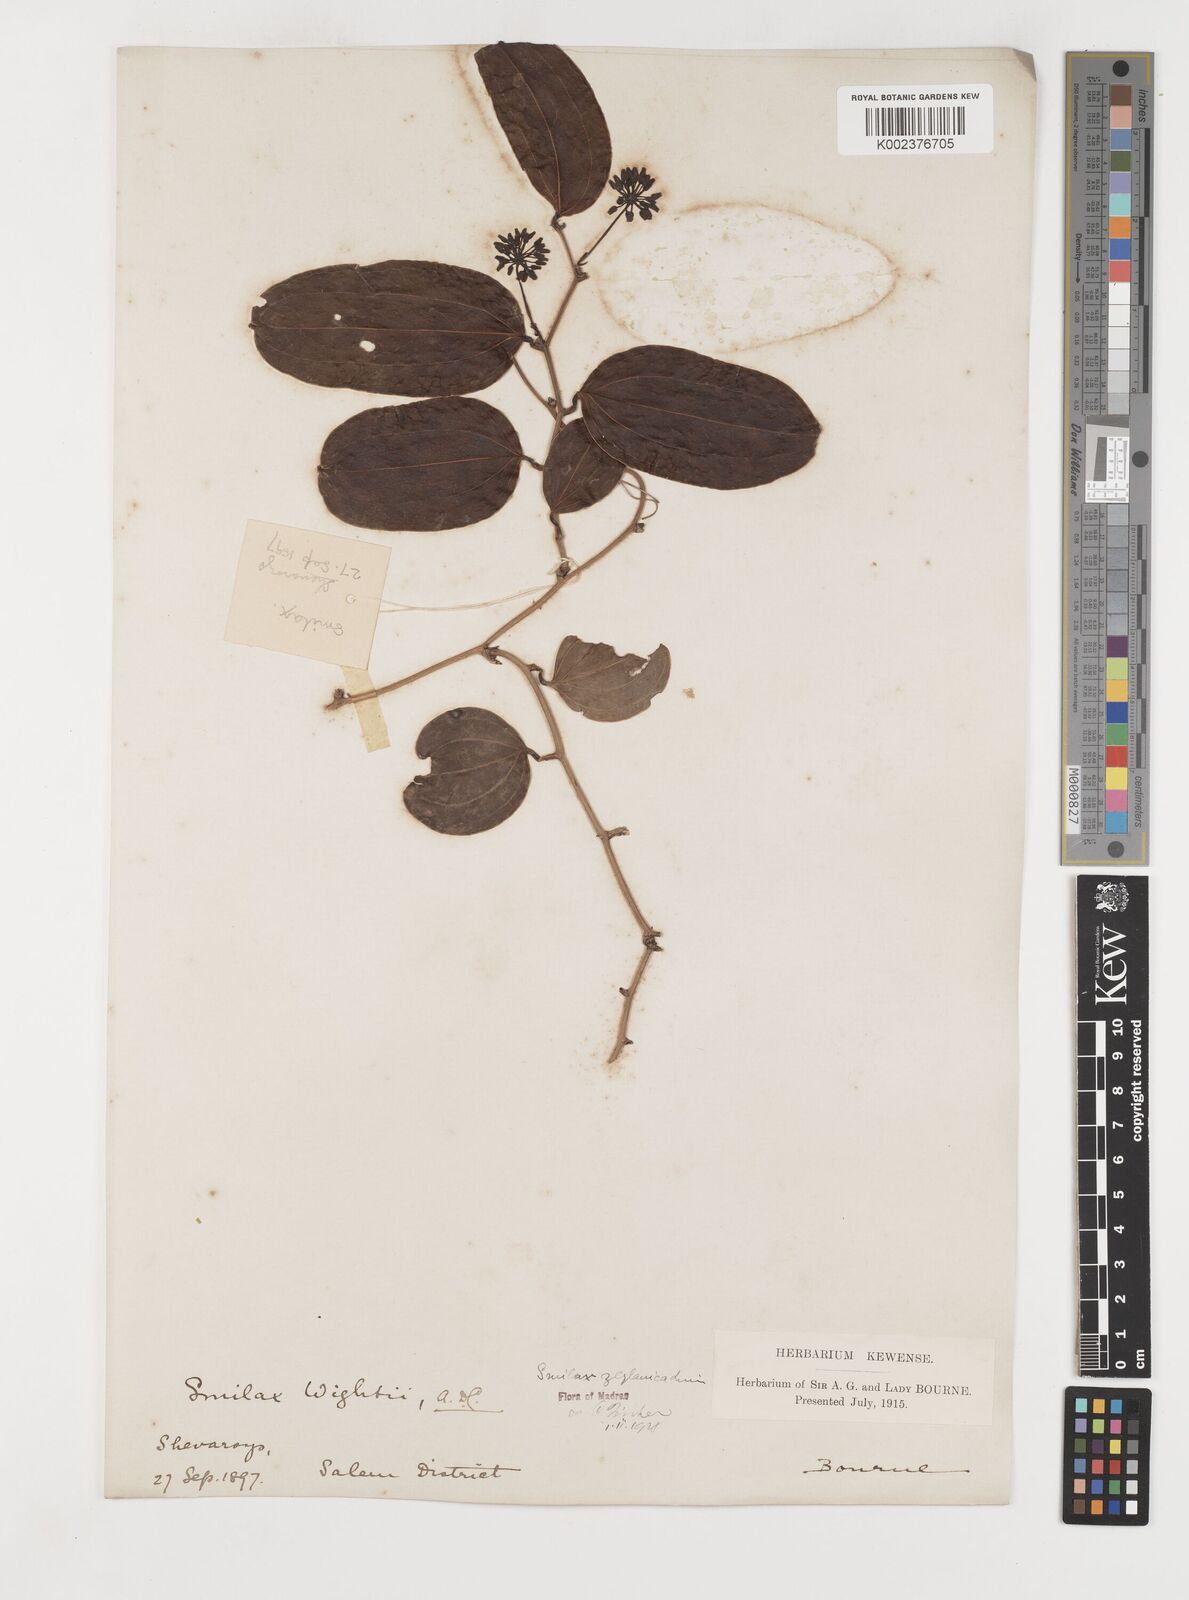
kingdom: Plantae
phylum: Tracheophyta
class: Liliopsida
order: Liliales
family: Smilacaceae
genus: Smilax
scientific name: Smilax zeylanica
